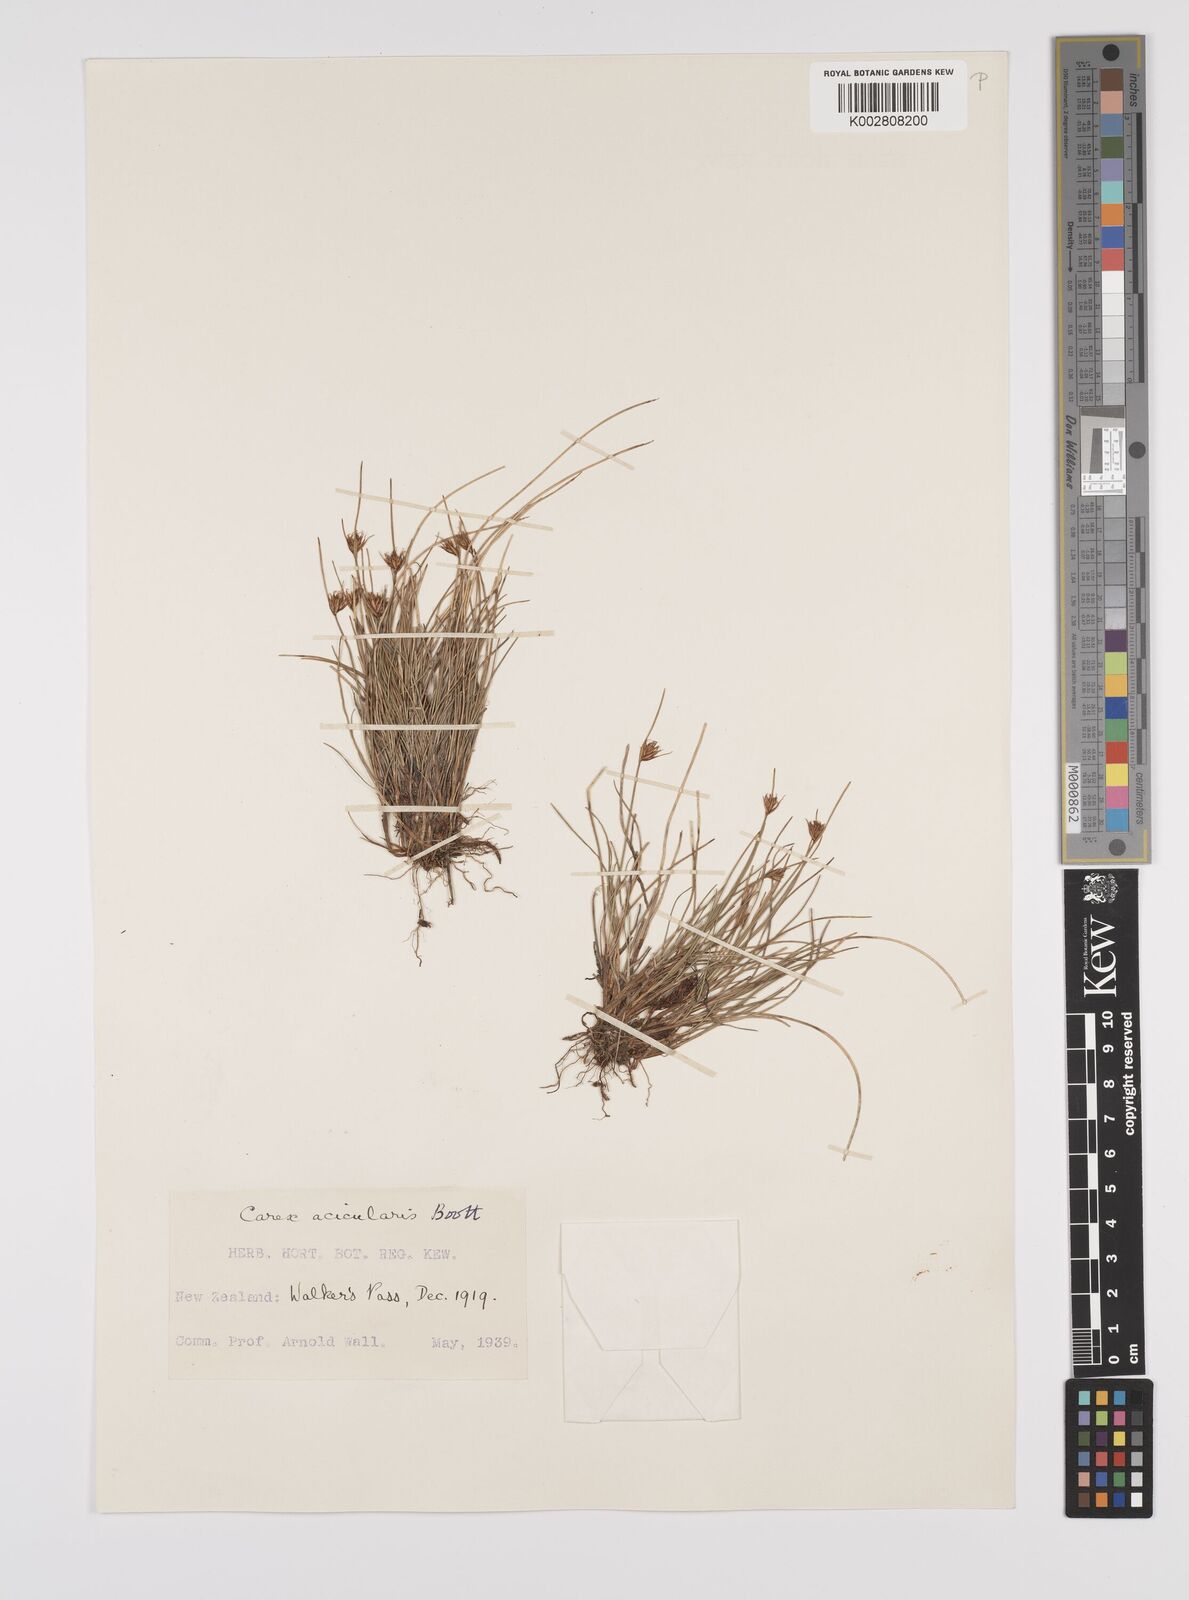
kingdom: Plantae
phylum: Tracheophyta
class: Liliopsida
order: Poales
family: Cyperaceae
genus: Carex
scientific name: Carex acicularis
